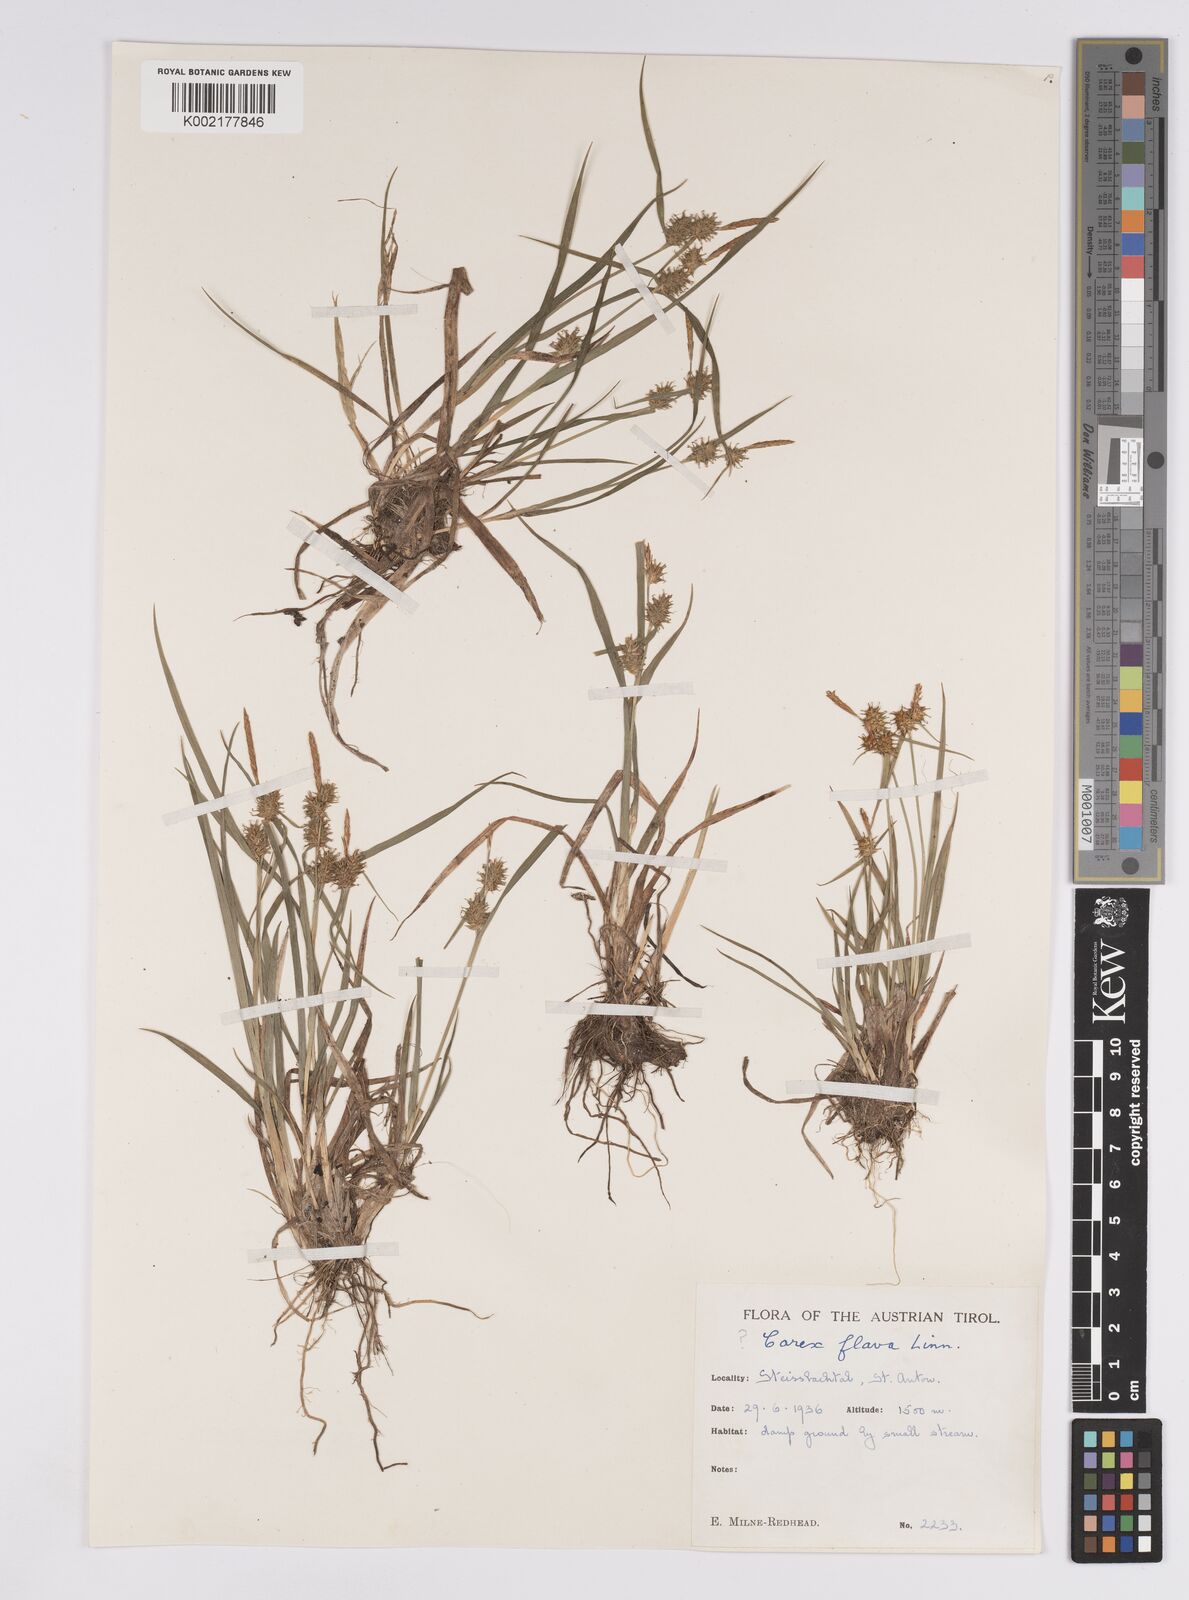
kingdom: Plantae
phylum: Tracheophyta
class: Liliopsida
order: Poales
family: Cyperaceae
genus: Carex
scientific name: Carex flava
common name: Large yellow-sedge
